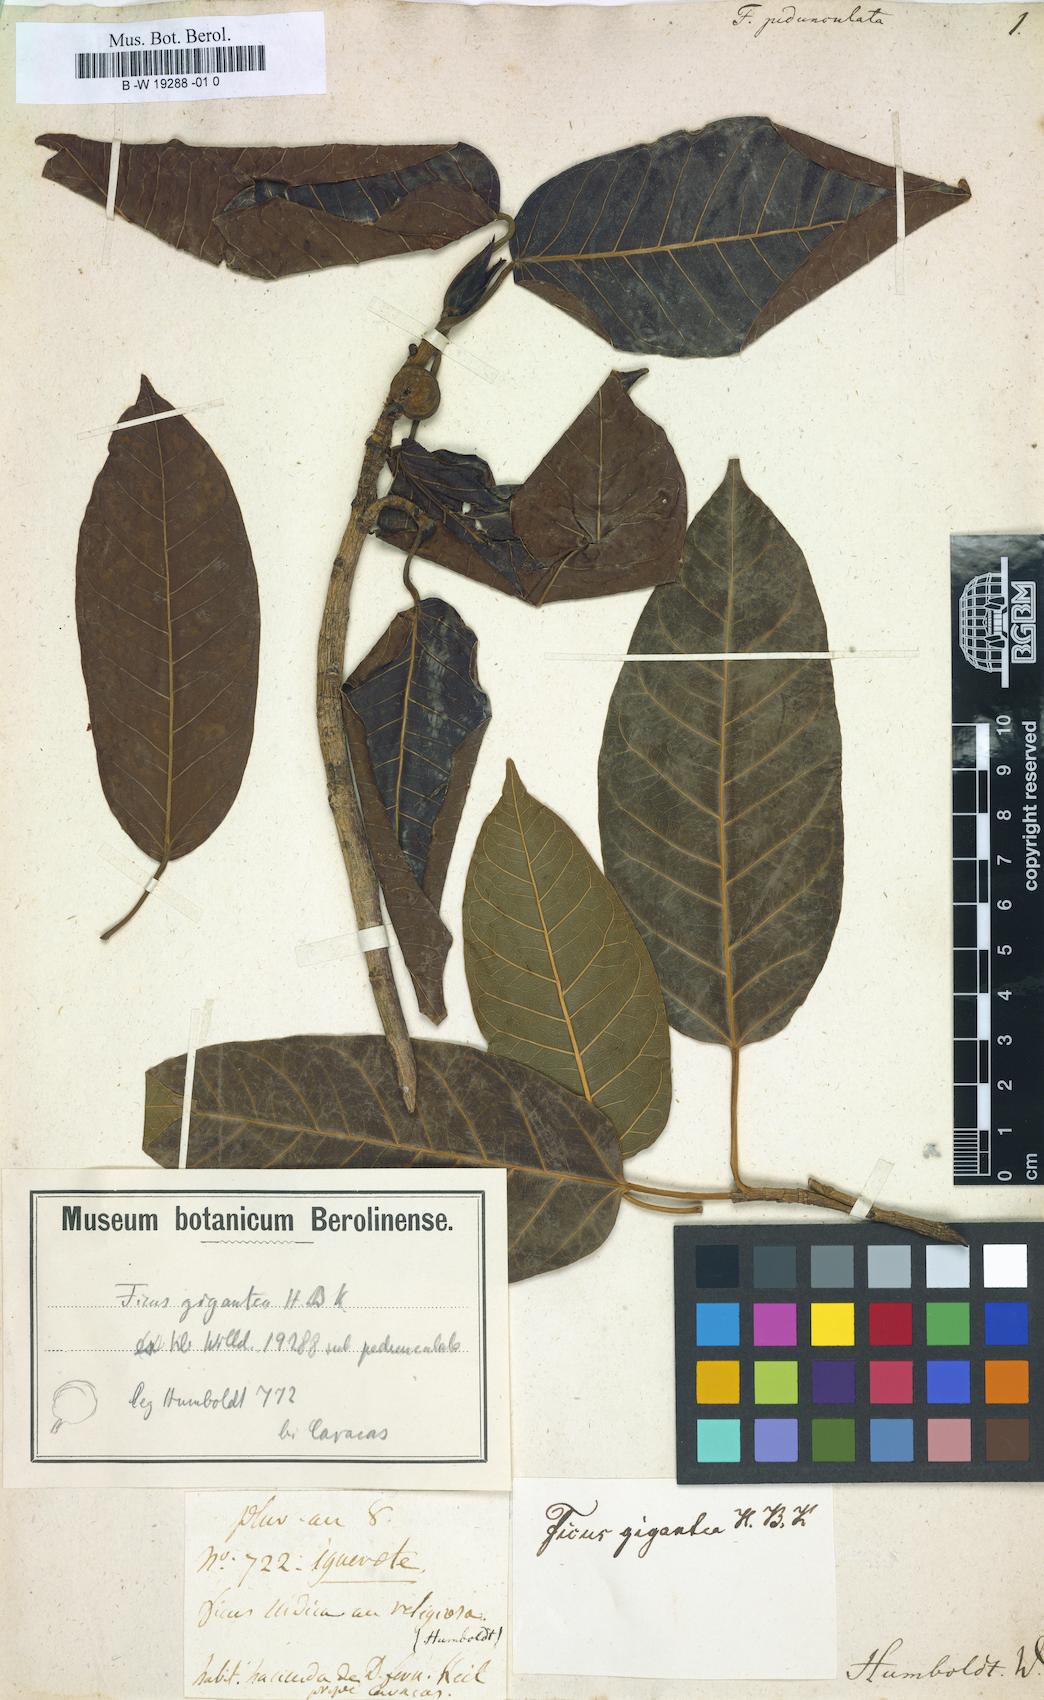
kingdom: Plantae
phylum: Tracheophyta
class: Magnoliopsida
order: Rosales
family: Moraceae
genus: Ficus
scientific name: Ficus citrifolia
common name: Strangler fig
